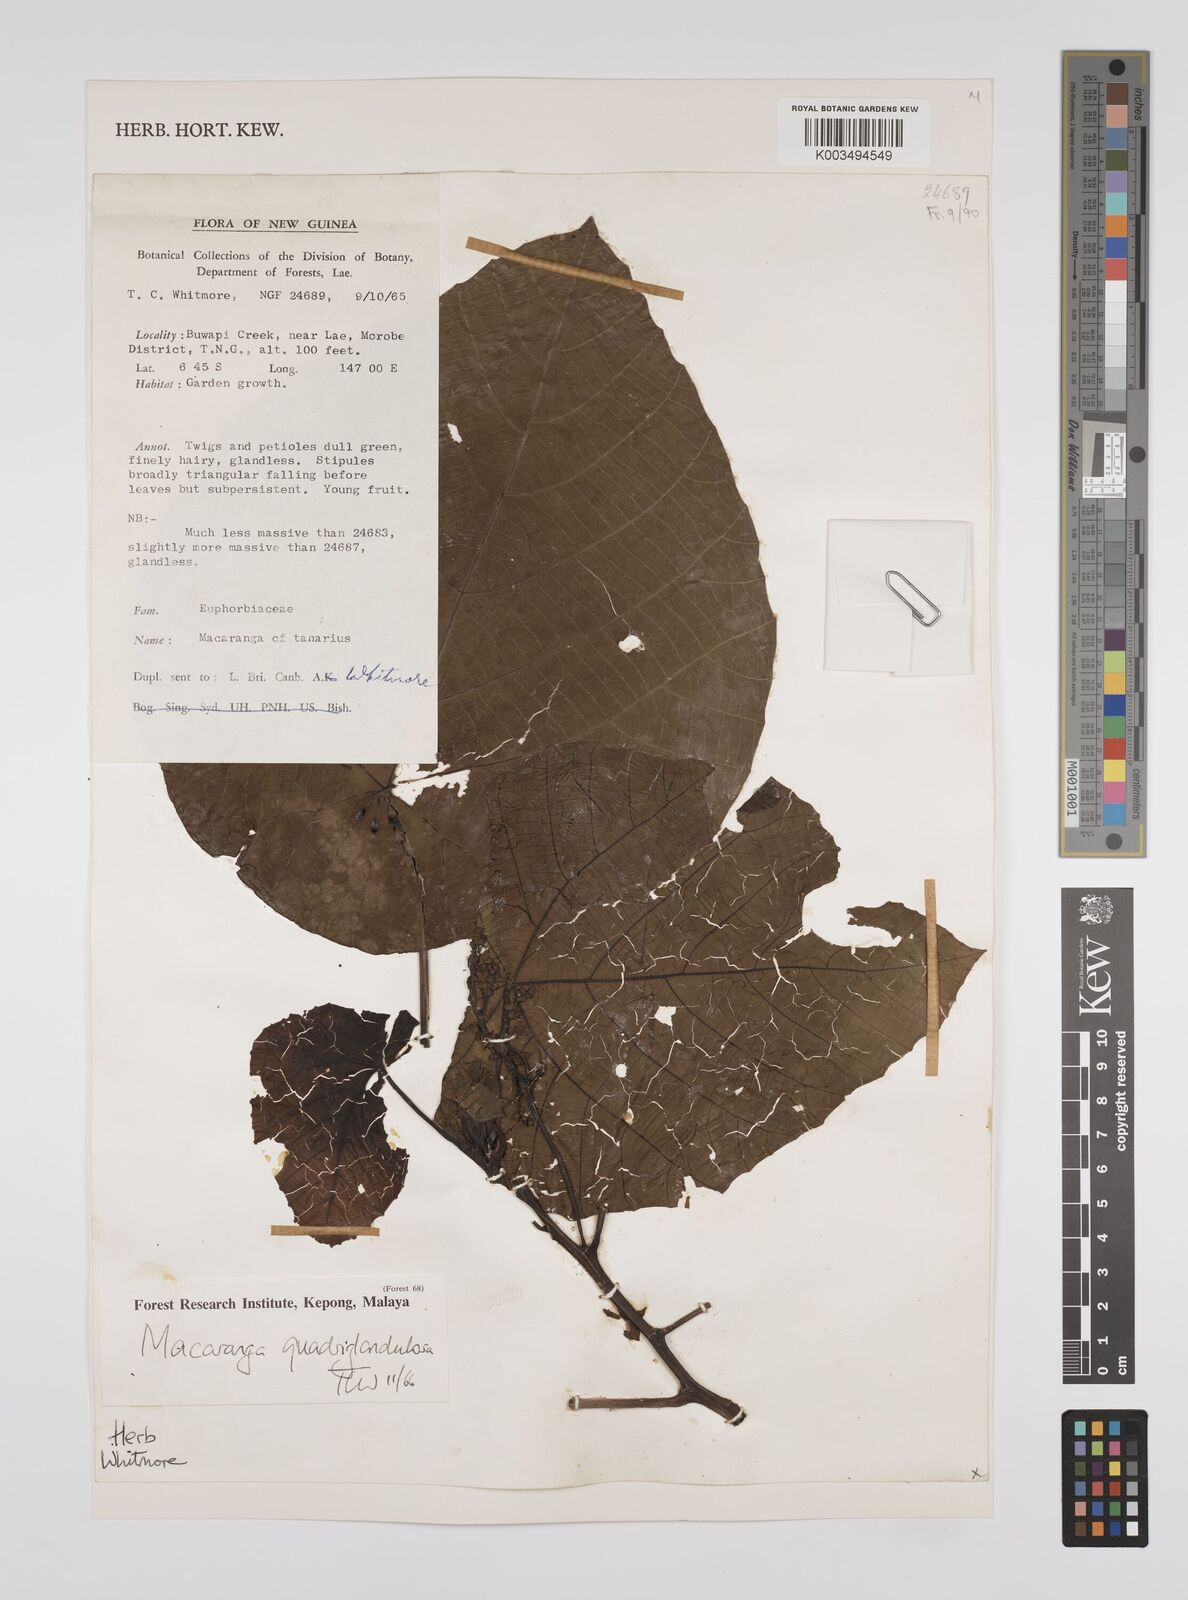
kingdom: Plantae
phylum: Tracheophyta
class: Magnoliopsida
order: Malpighiales
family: Euphorbiaceae
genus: Macaranga
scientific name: Macaranga quadriglandulosa
